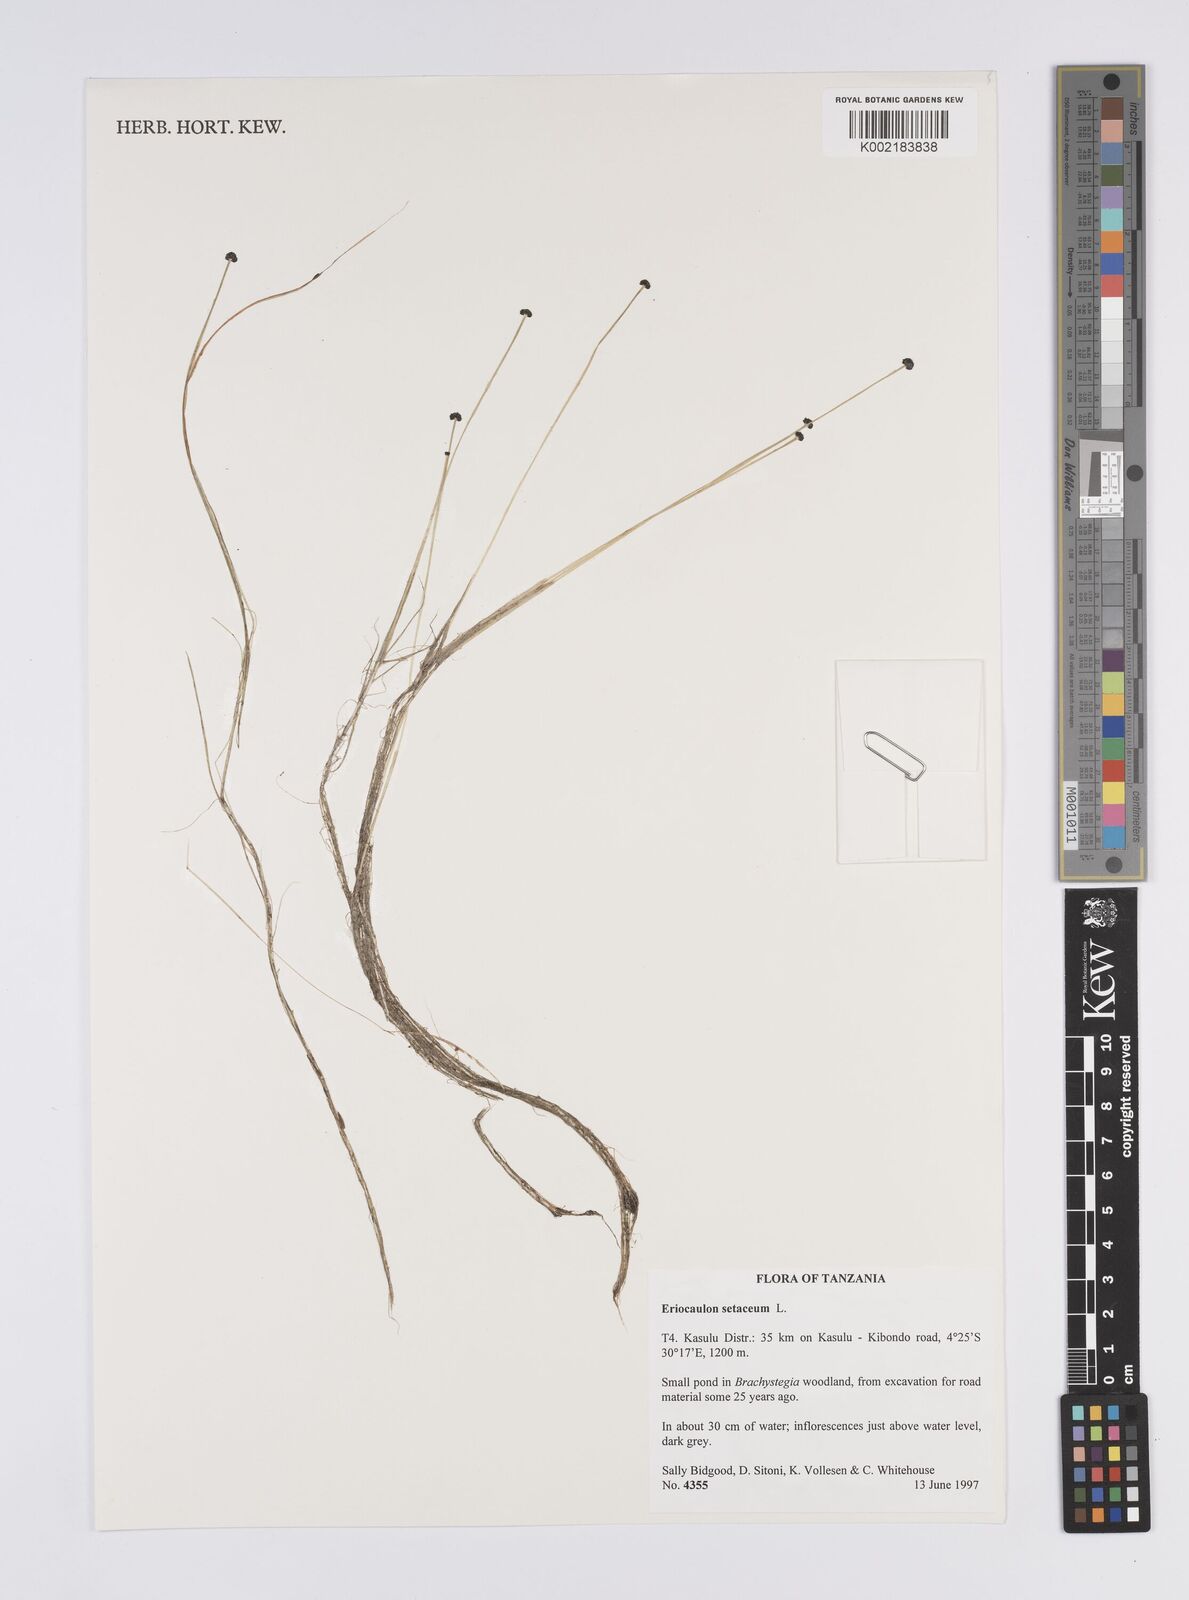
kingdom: Plantae
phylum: Tracheophyta
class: Liliopsida
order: Poales
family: Eriocaulaceae
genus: Eriocaulon
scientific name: Eriocaulon setaceum
